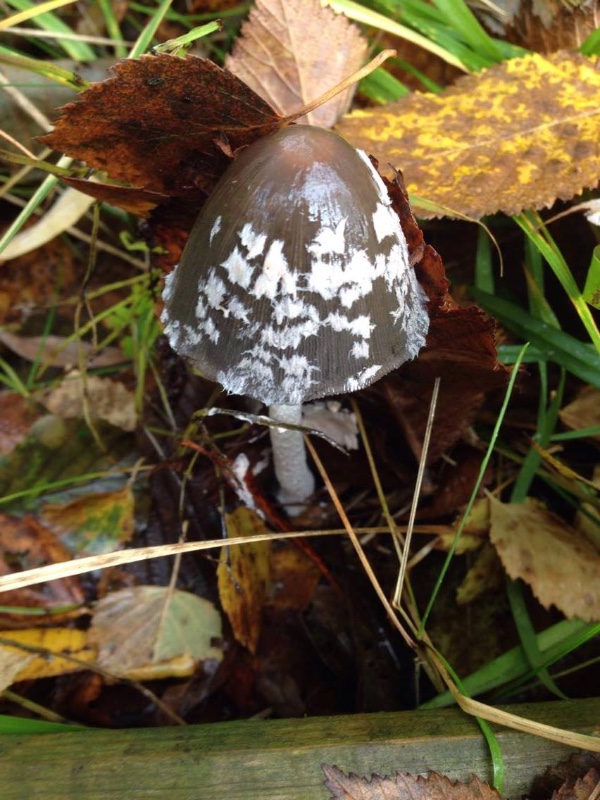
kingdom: Fungi
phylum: Basidiomycota
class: Agaricomycetes
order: Agaricales
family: Psathyrellaceae
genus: Coprinopsis
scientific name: Coprinopsis picacea
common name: skade-blækhat
